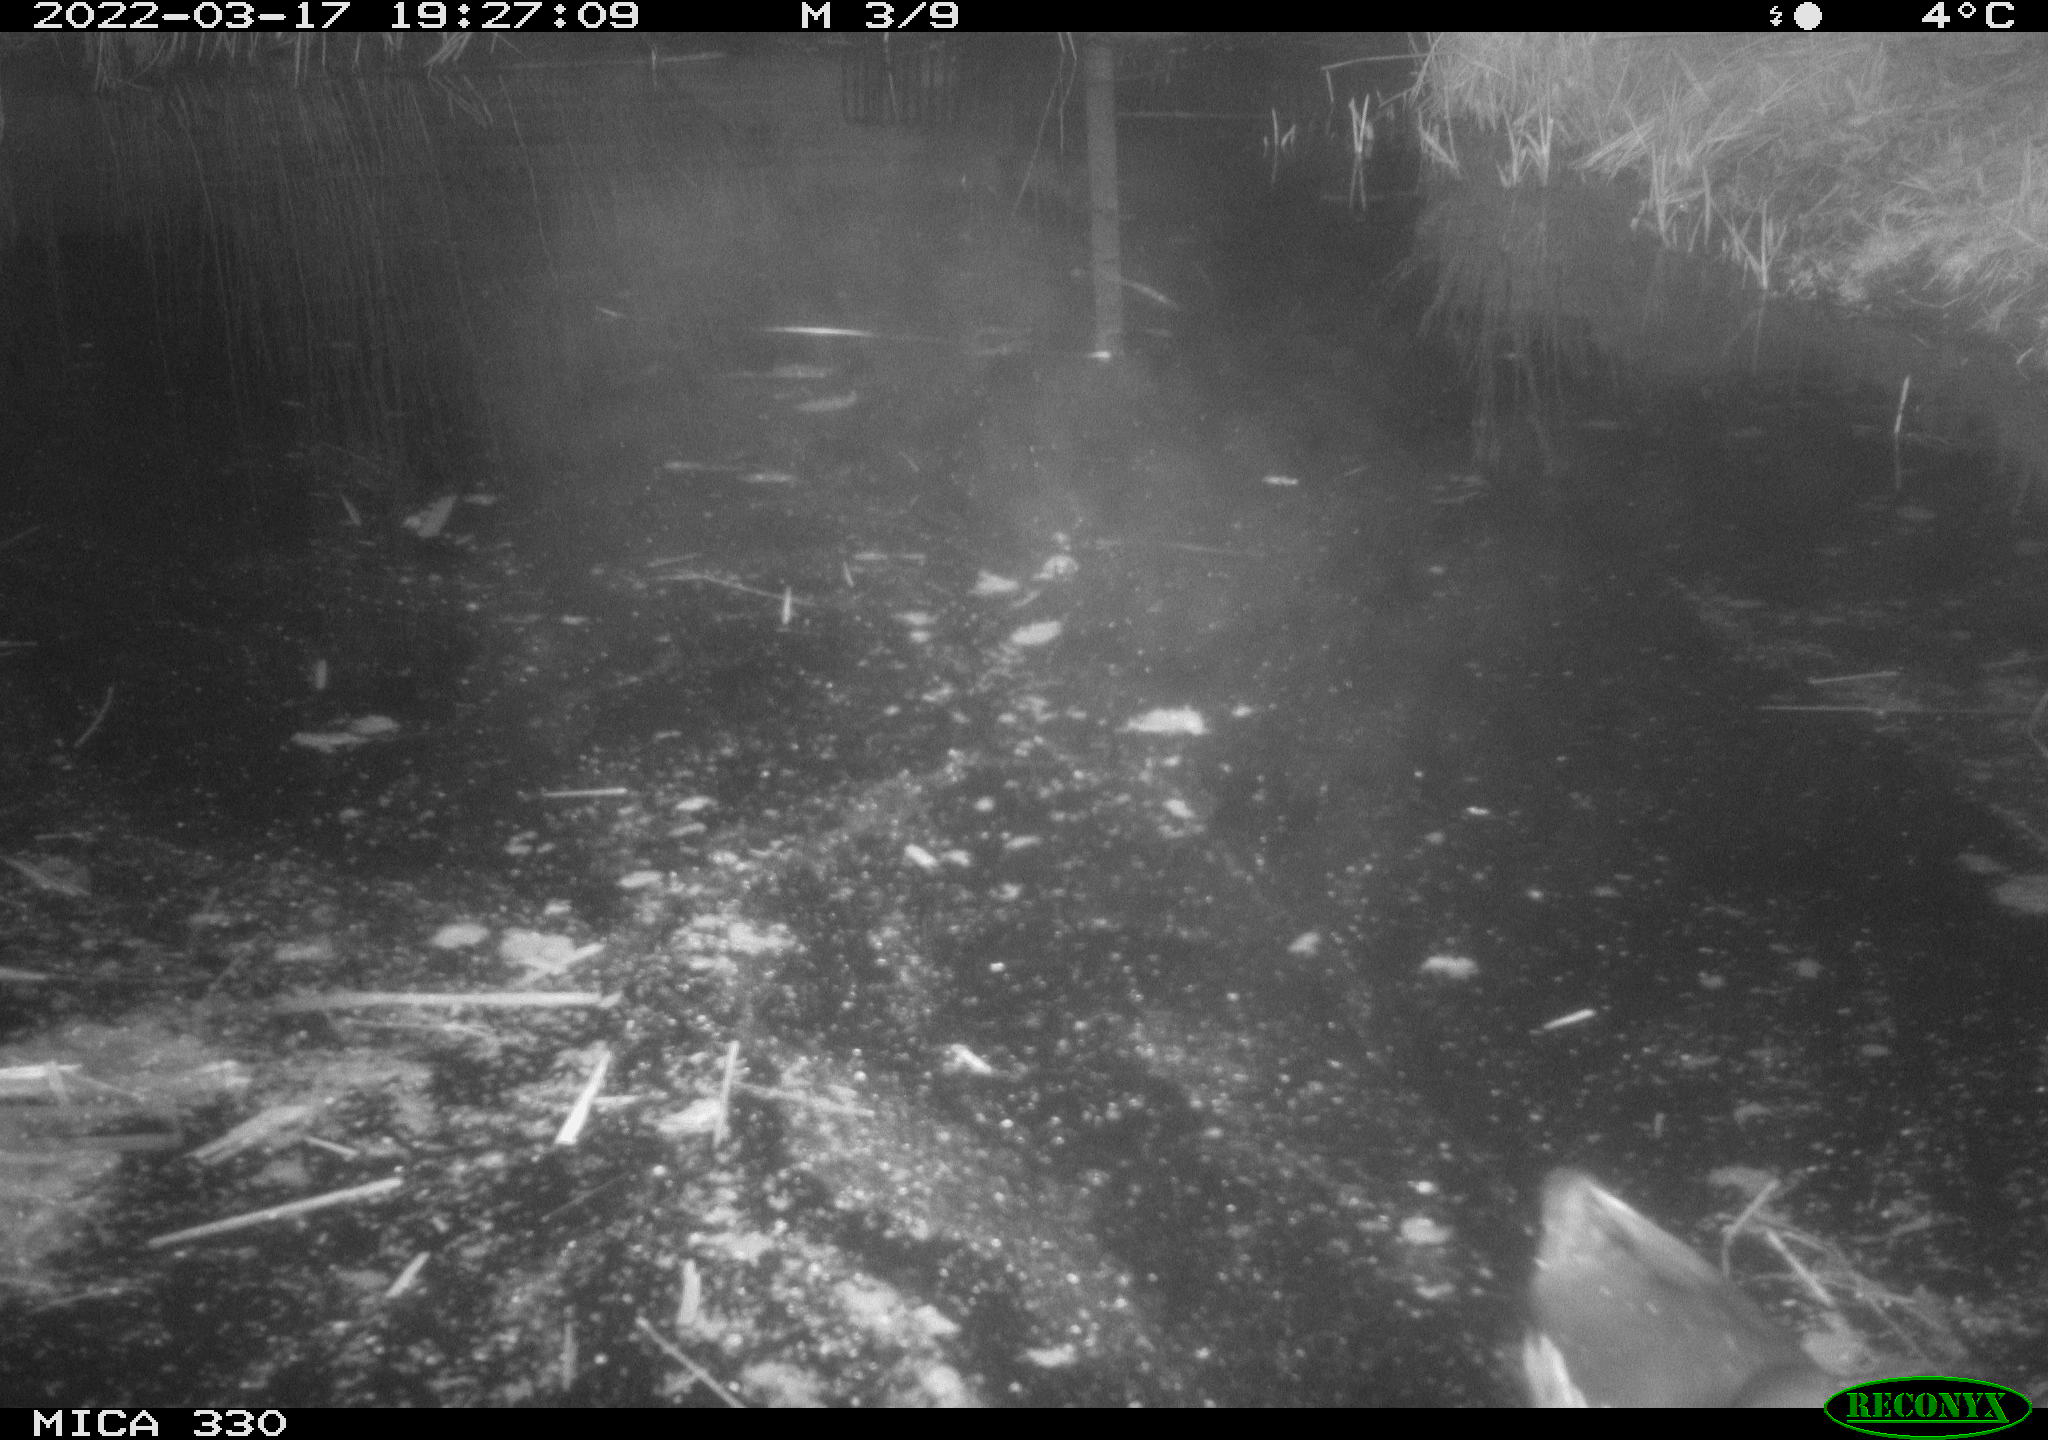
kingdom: Animalia
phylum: Chordata
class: Aves
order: Gruiformes
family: Rallidae
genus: Gallinula
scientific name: Gallinula chloropus
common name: Common moorhen
